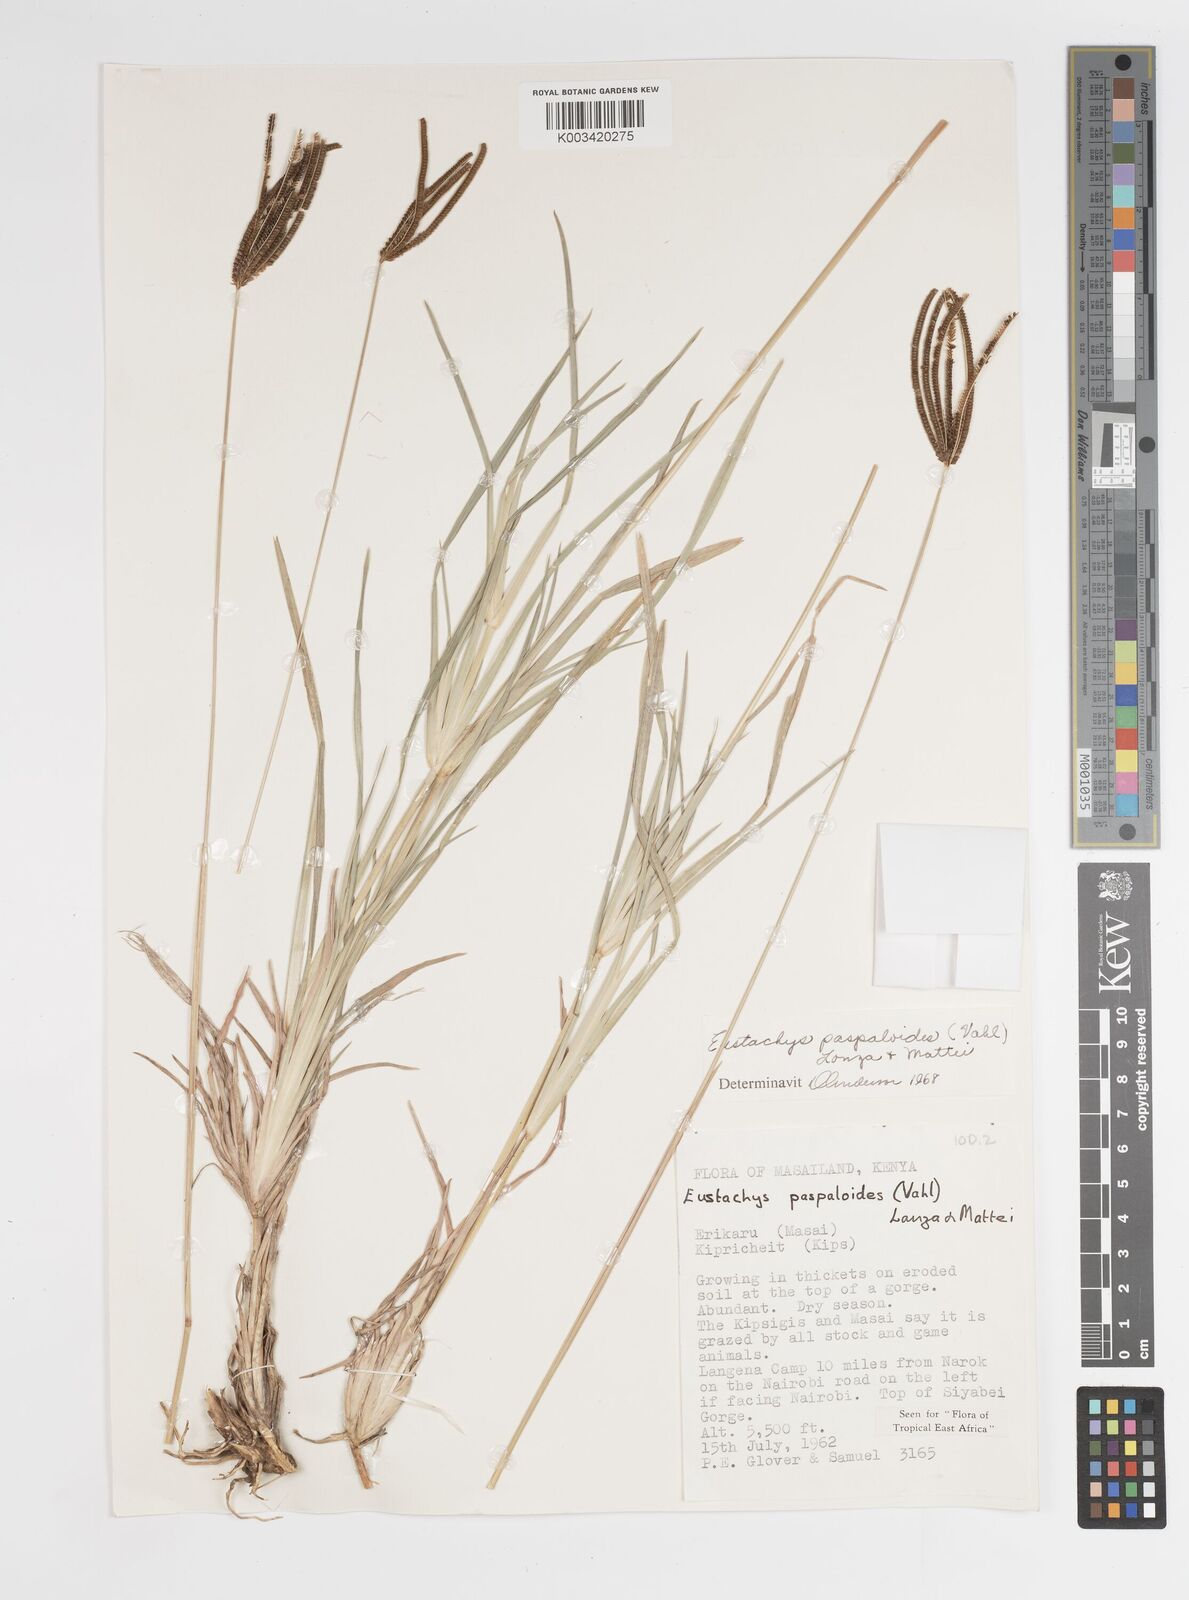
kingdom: Plantae
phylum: Tracheophyta
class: Liliopsida
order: Poales
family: Poaceae
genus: Eustachys
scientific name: Eustachys paspaloides
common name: Caribbean fingergrass
